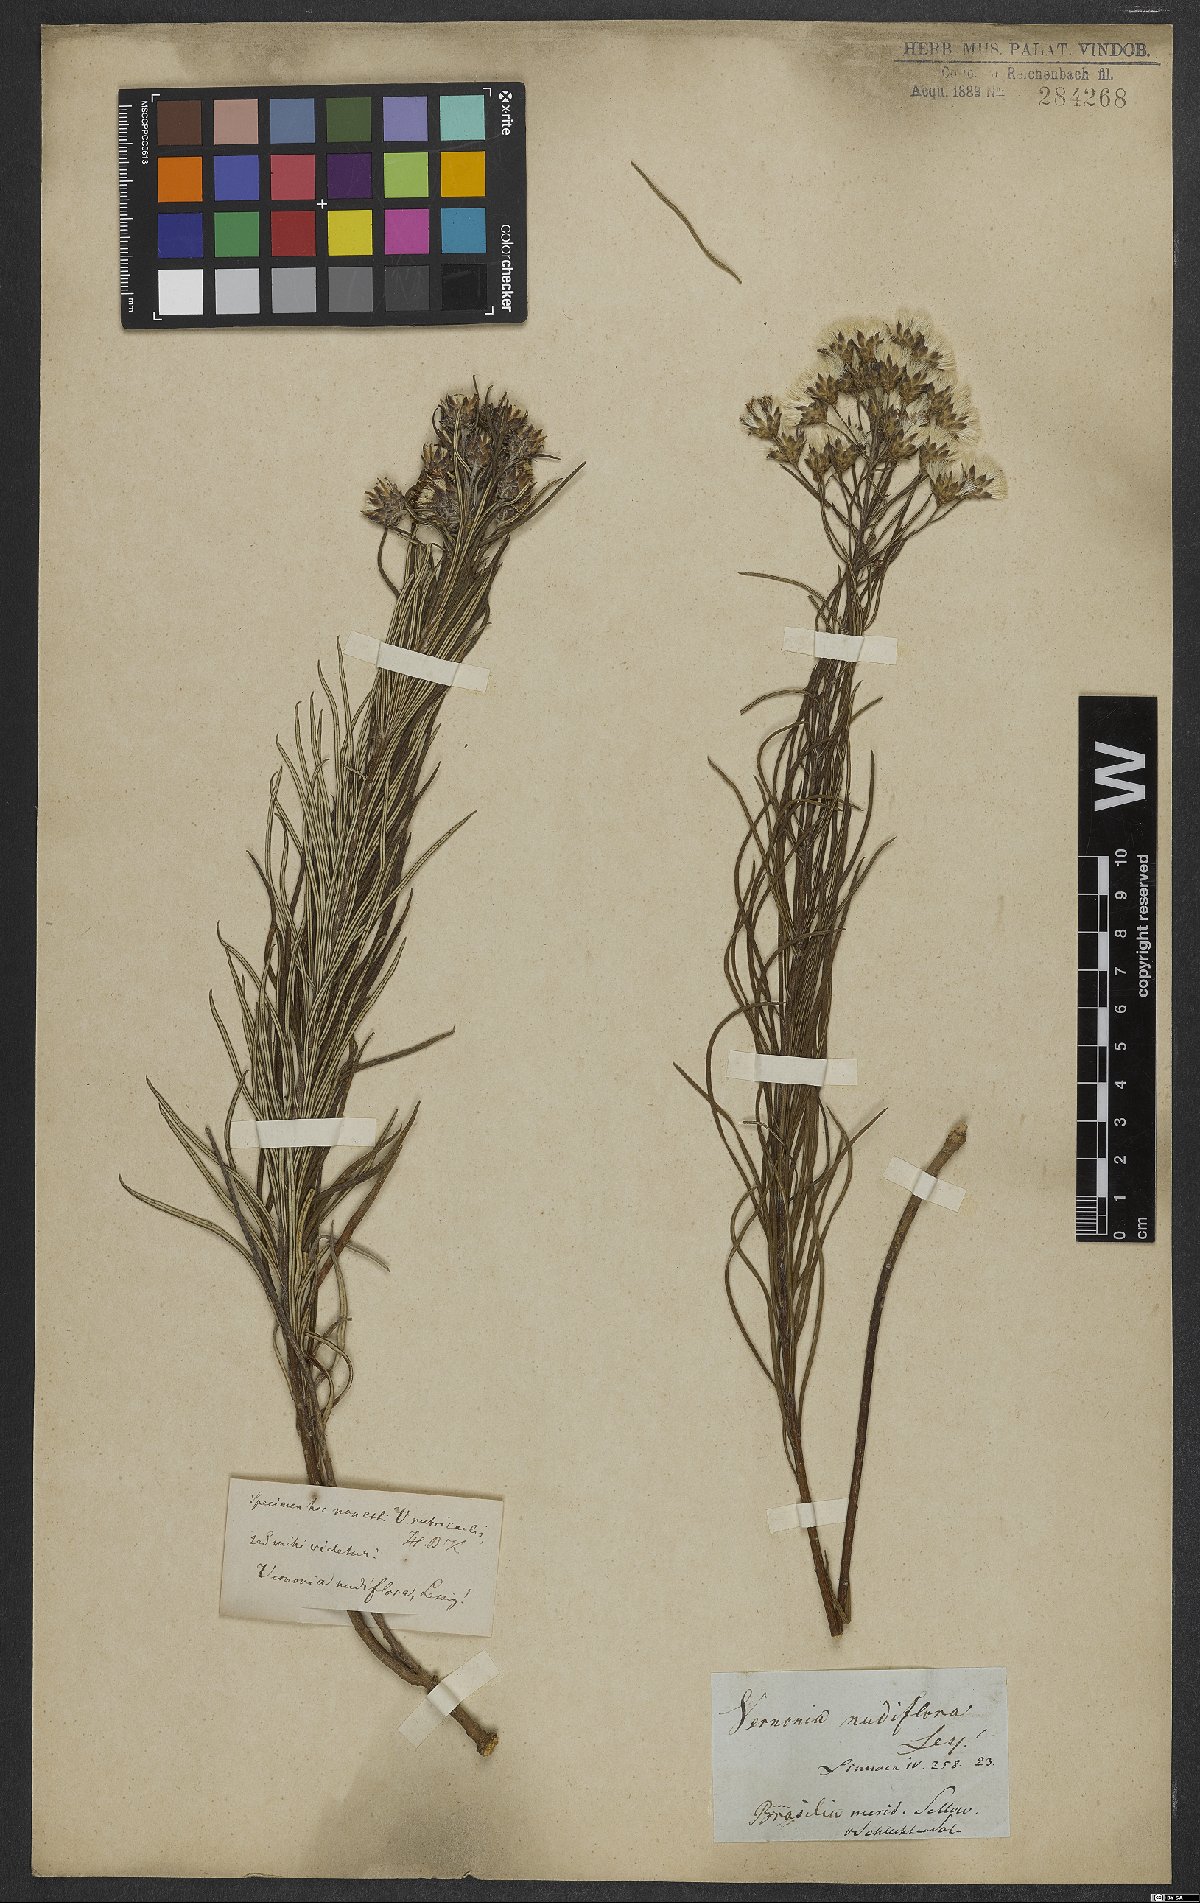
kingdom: Plantae
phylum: Tracheophyta
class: Magnoliopsida
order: Asterales
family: Asteraceae
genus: Vernonanthura
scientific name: Vernonanthura nudiflora
